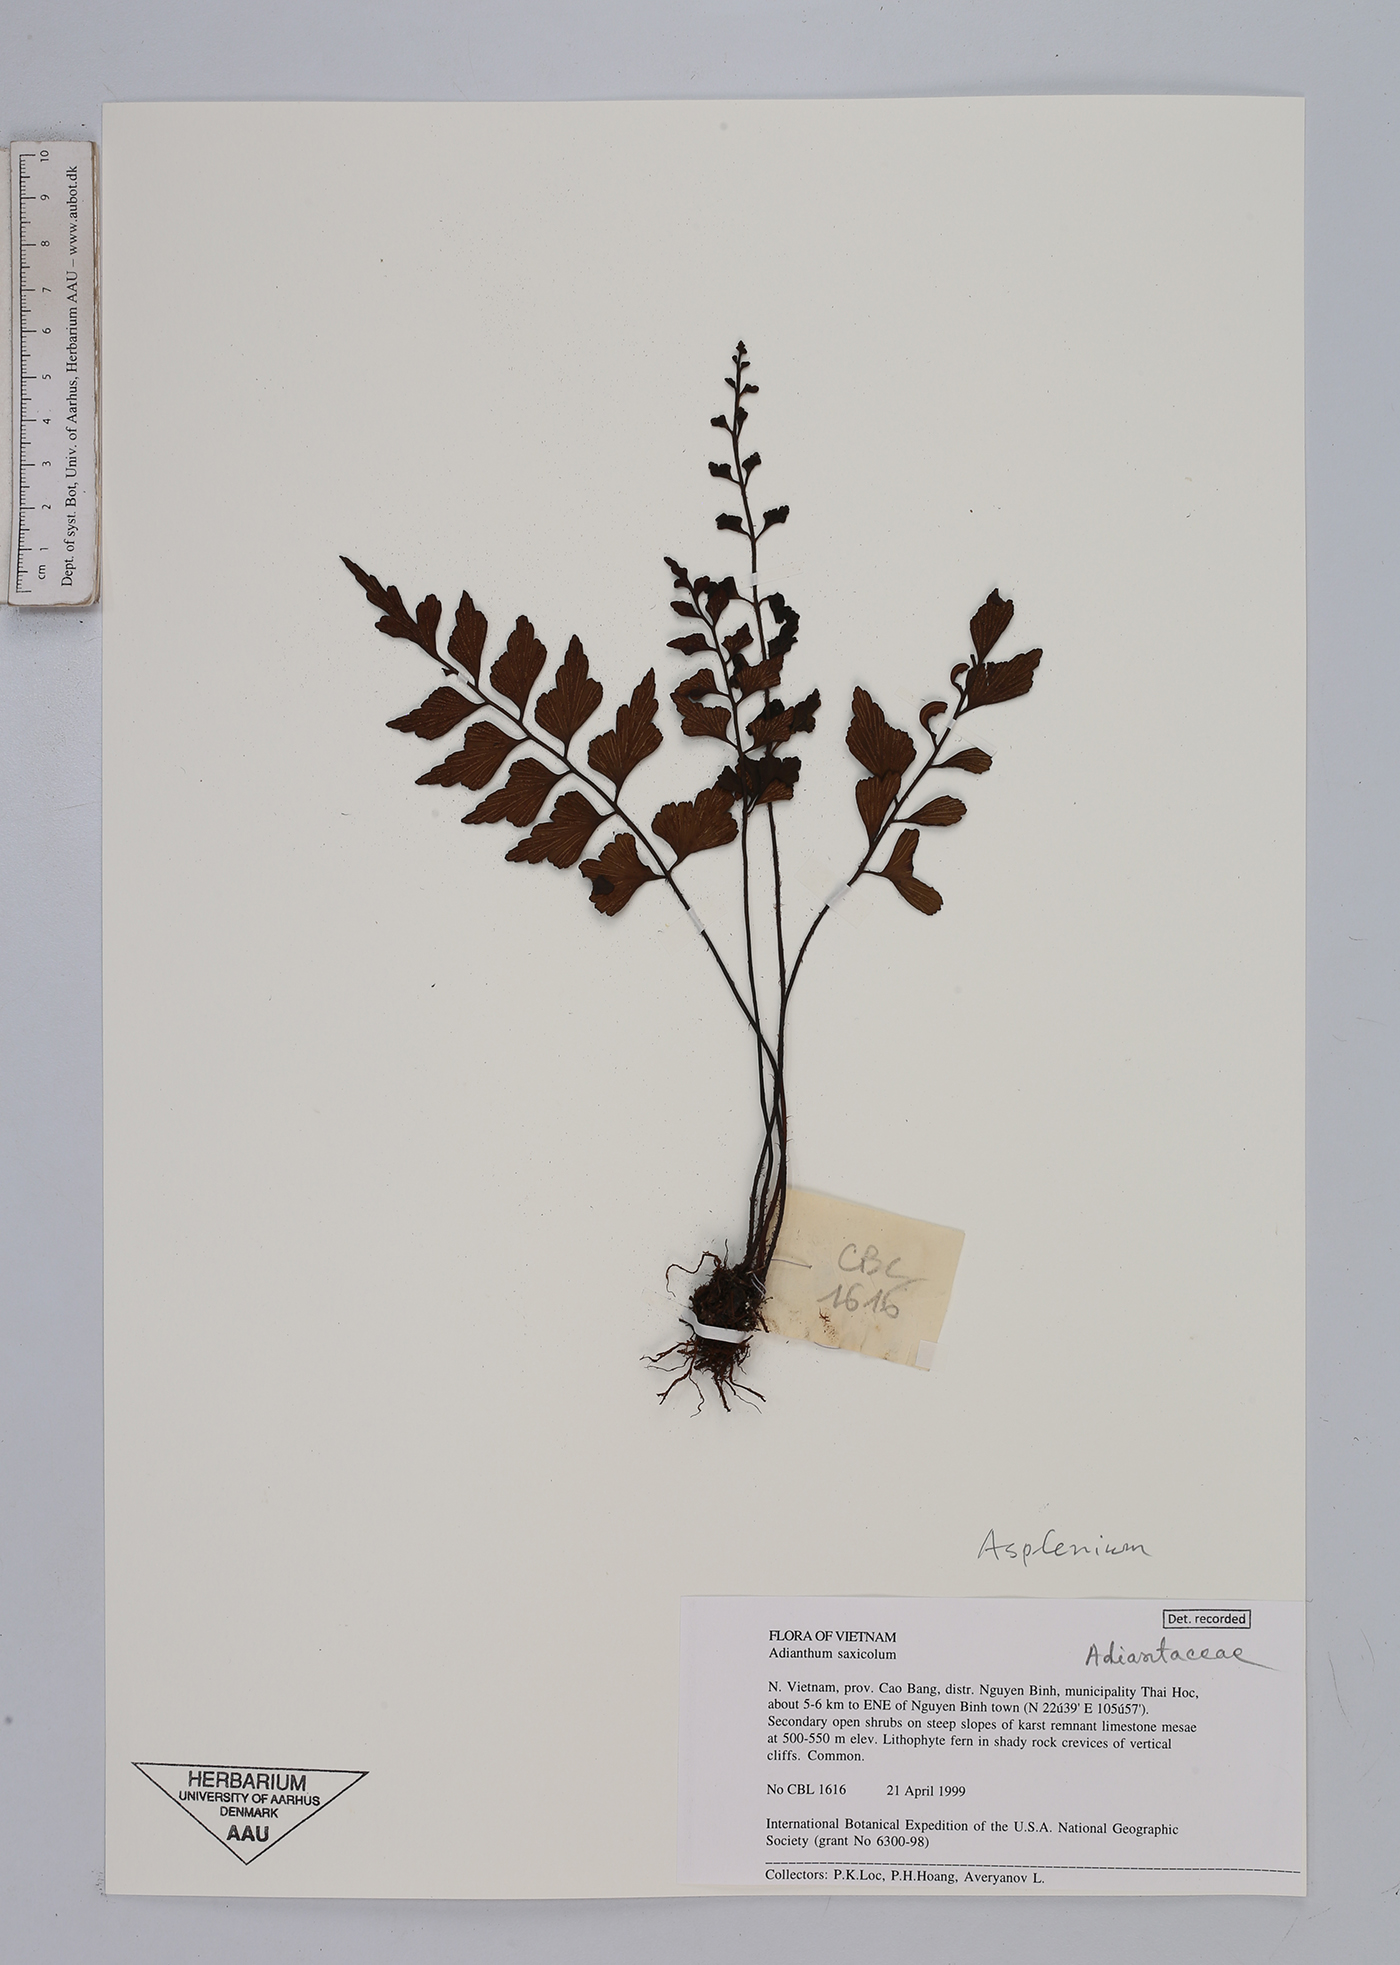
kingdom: Plantae
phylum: Tracheophyta
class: Polypodiopsida
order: Polypodiales
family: Aspleniaceae
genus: Asplenium
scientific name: Asplenium
